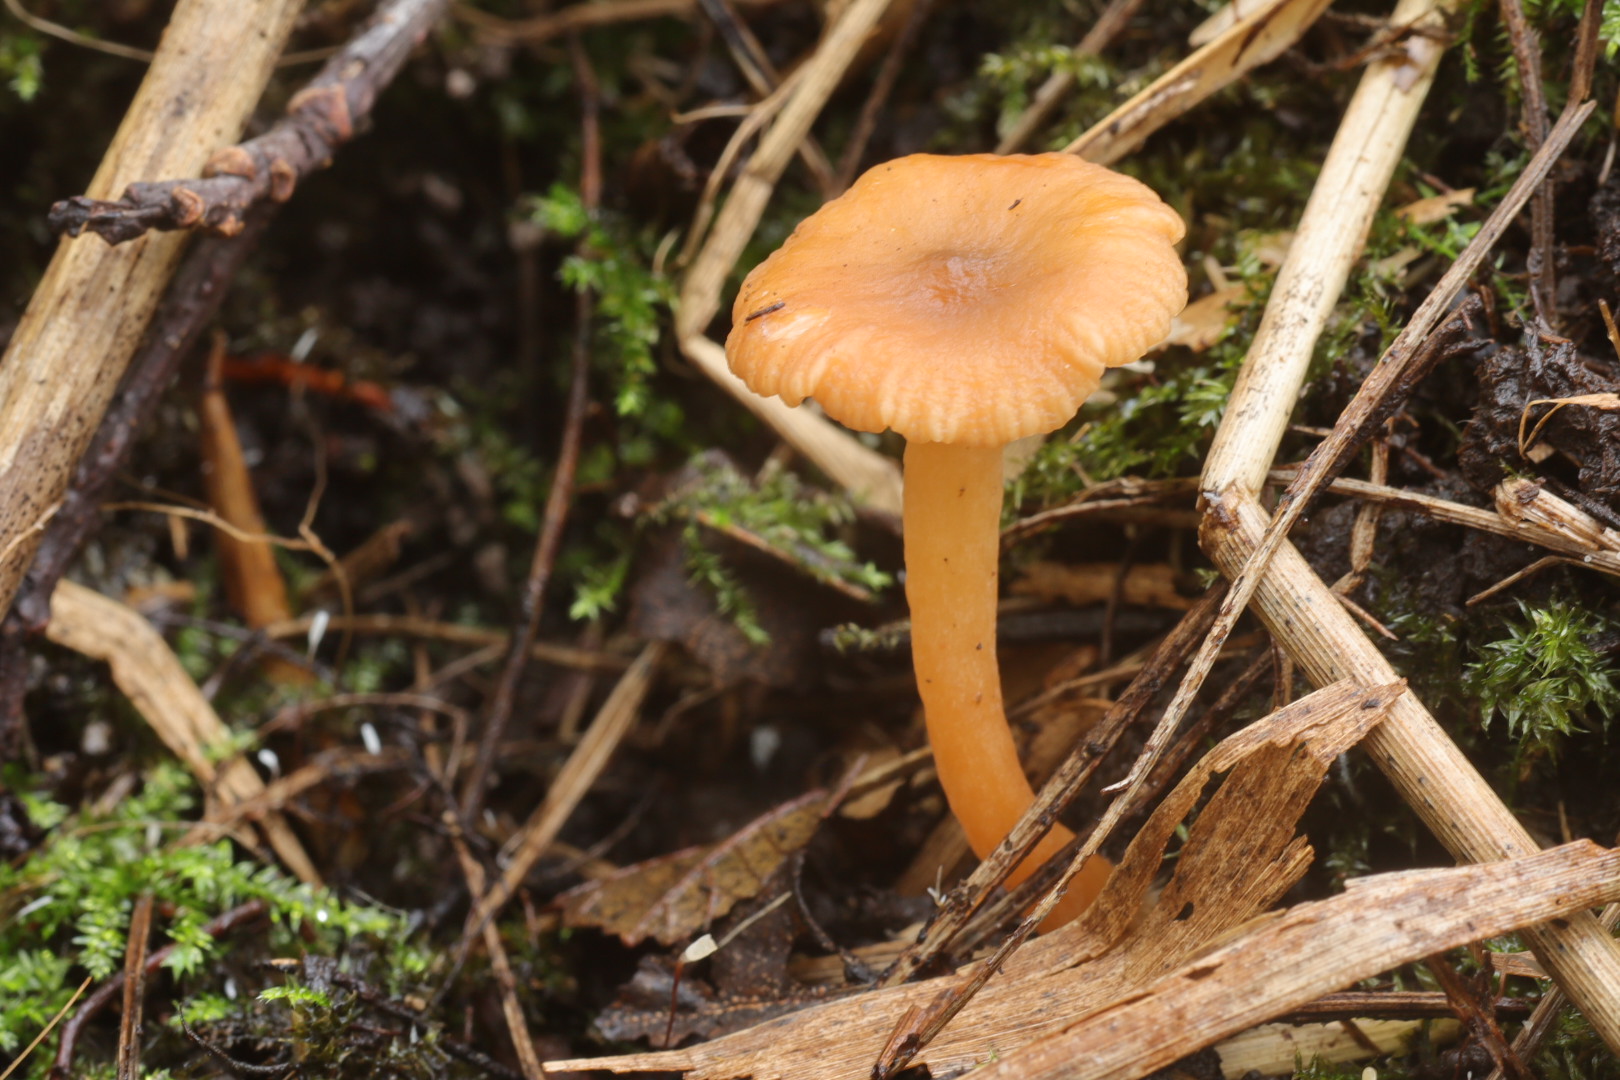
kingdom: Fungi
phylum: Basidiomycota
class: Agaricomycetes
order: Russulales
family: Russulaceae
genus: Lactarius
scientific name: Lactarius obscuratus
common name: elle-mælkehat
